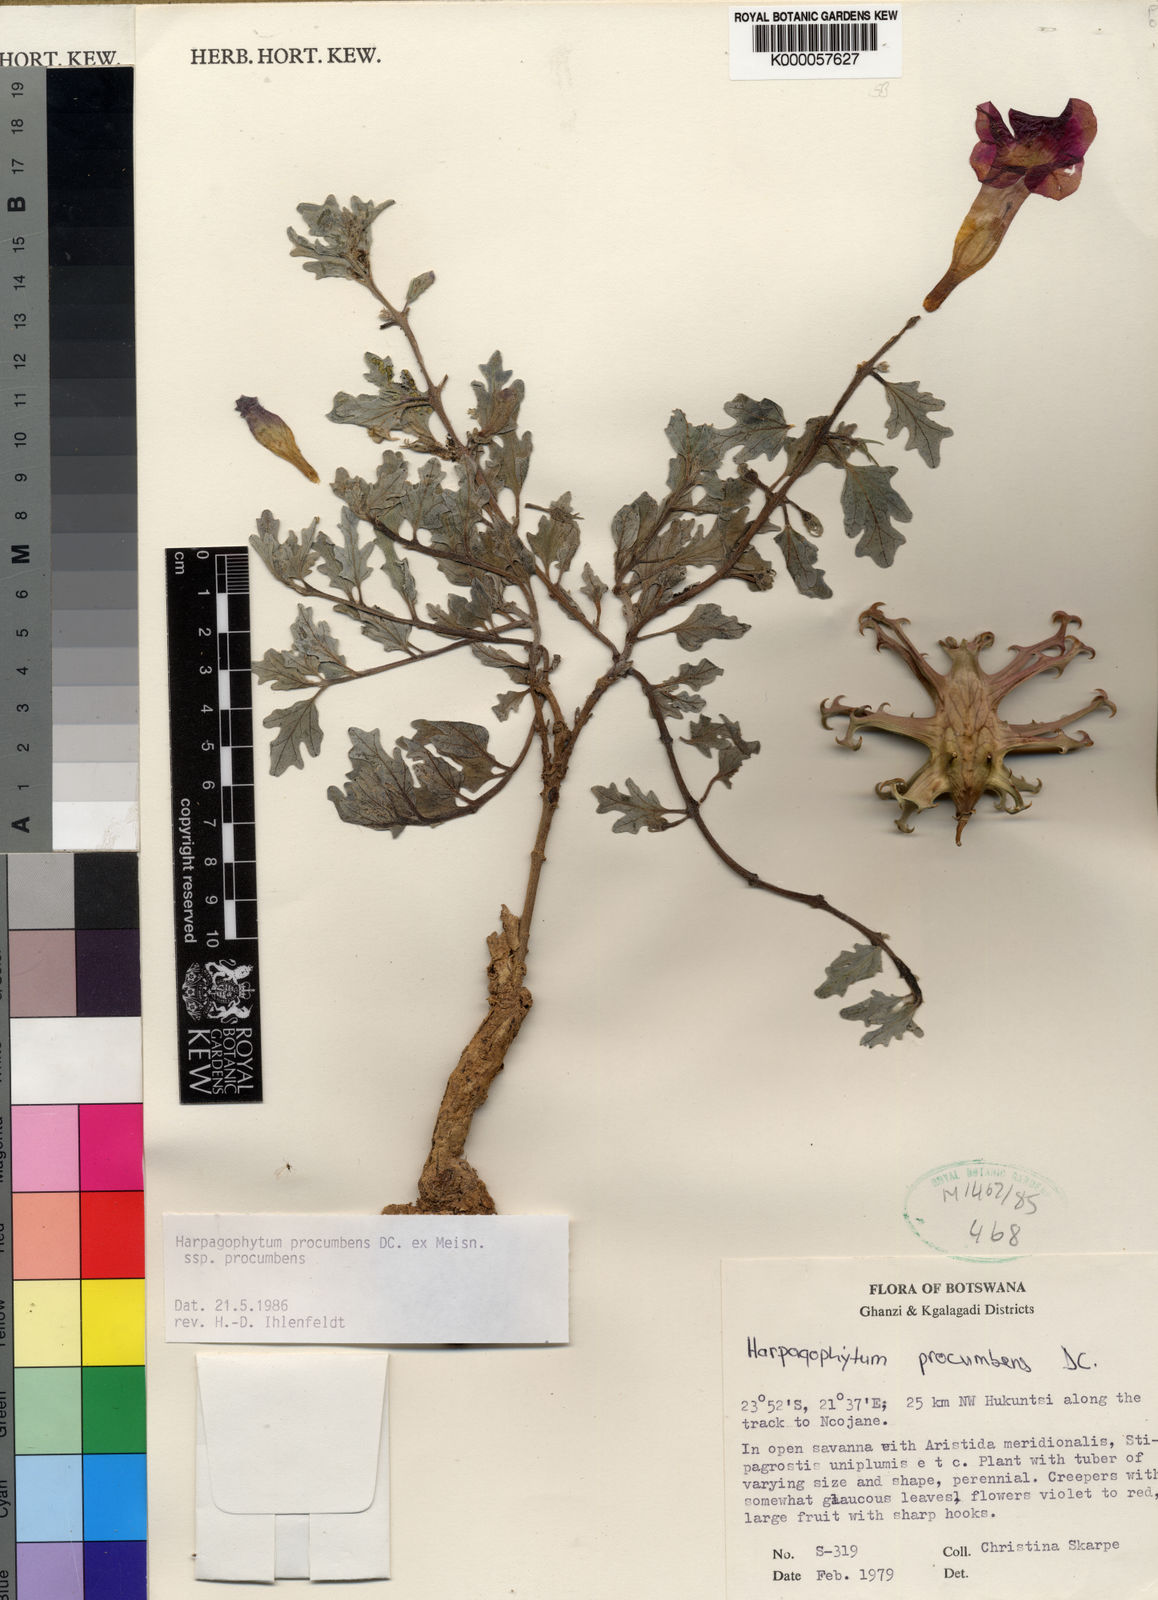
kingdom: Plantae
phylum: Tracheophyta
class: Magnoliopsida
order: Lamiales
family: Pedaliaceae
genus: Harpagophytum
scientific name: Harpagophytum procumbens
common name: Grappleplant
